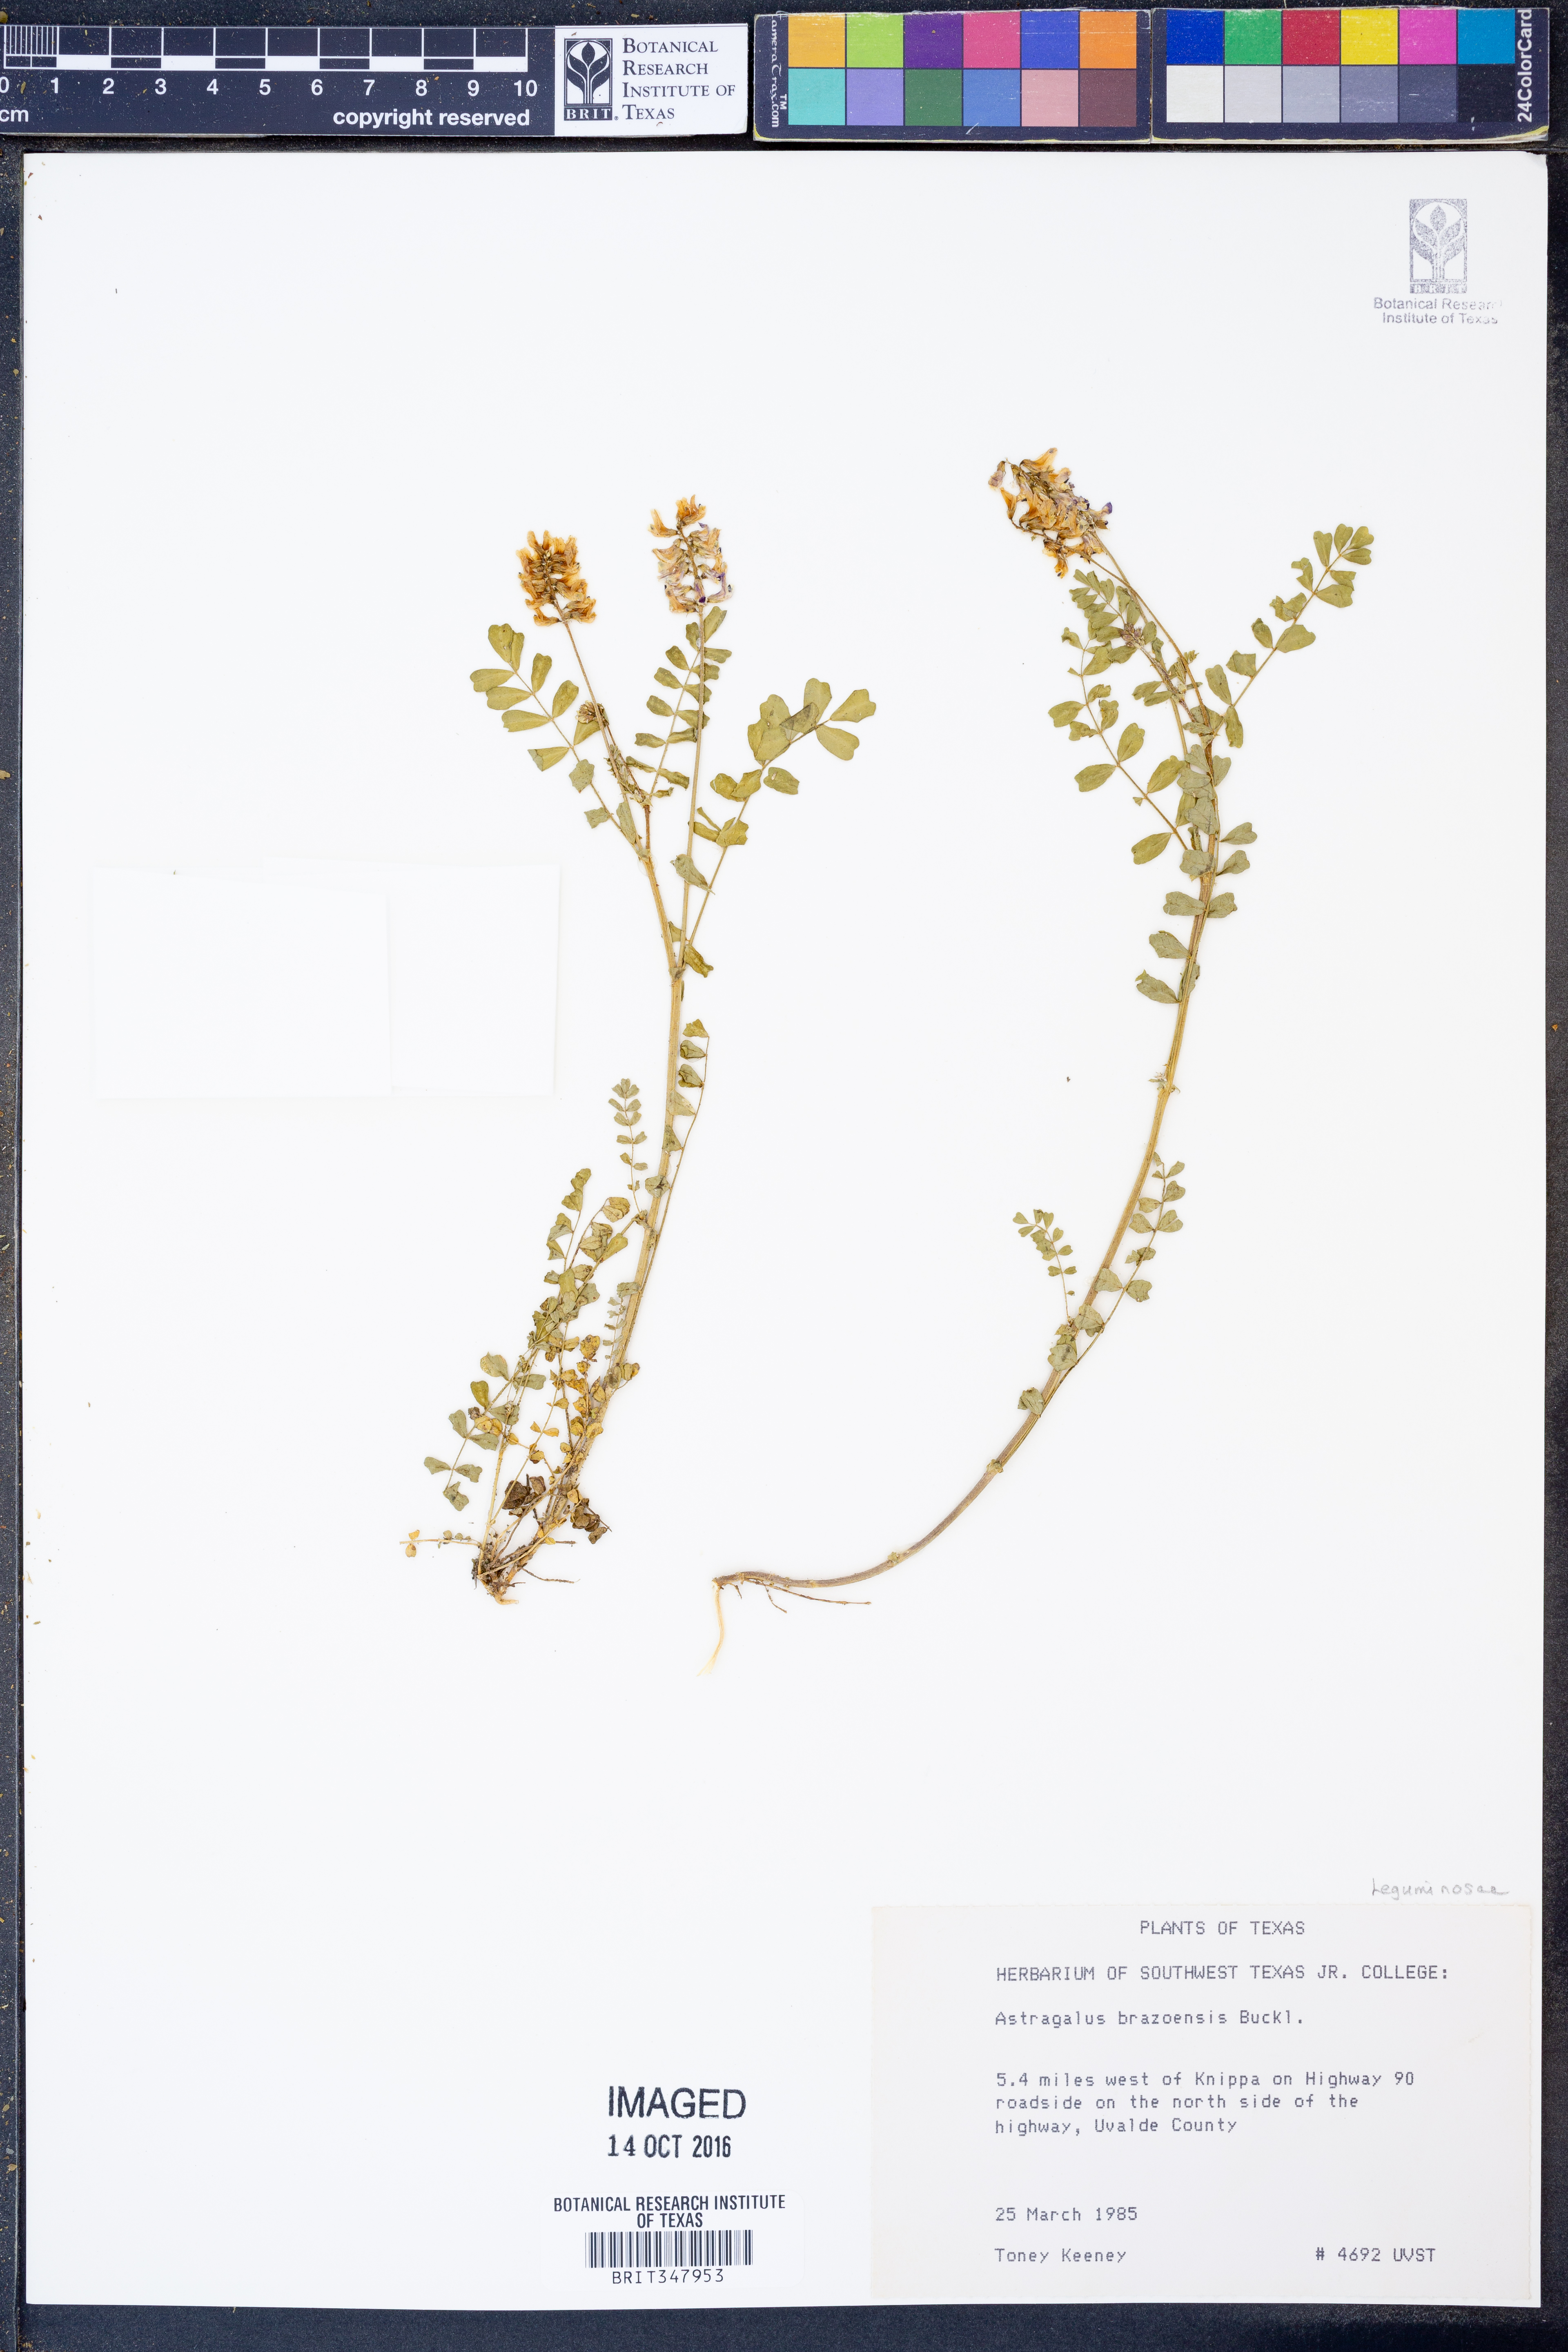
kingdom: Plantae
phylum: Tracheophyta
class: Magnoliopsida
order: Fabales
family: Fabaceae
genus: Astragalus
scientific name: Astragalus brazoensis
